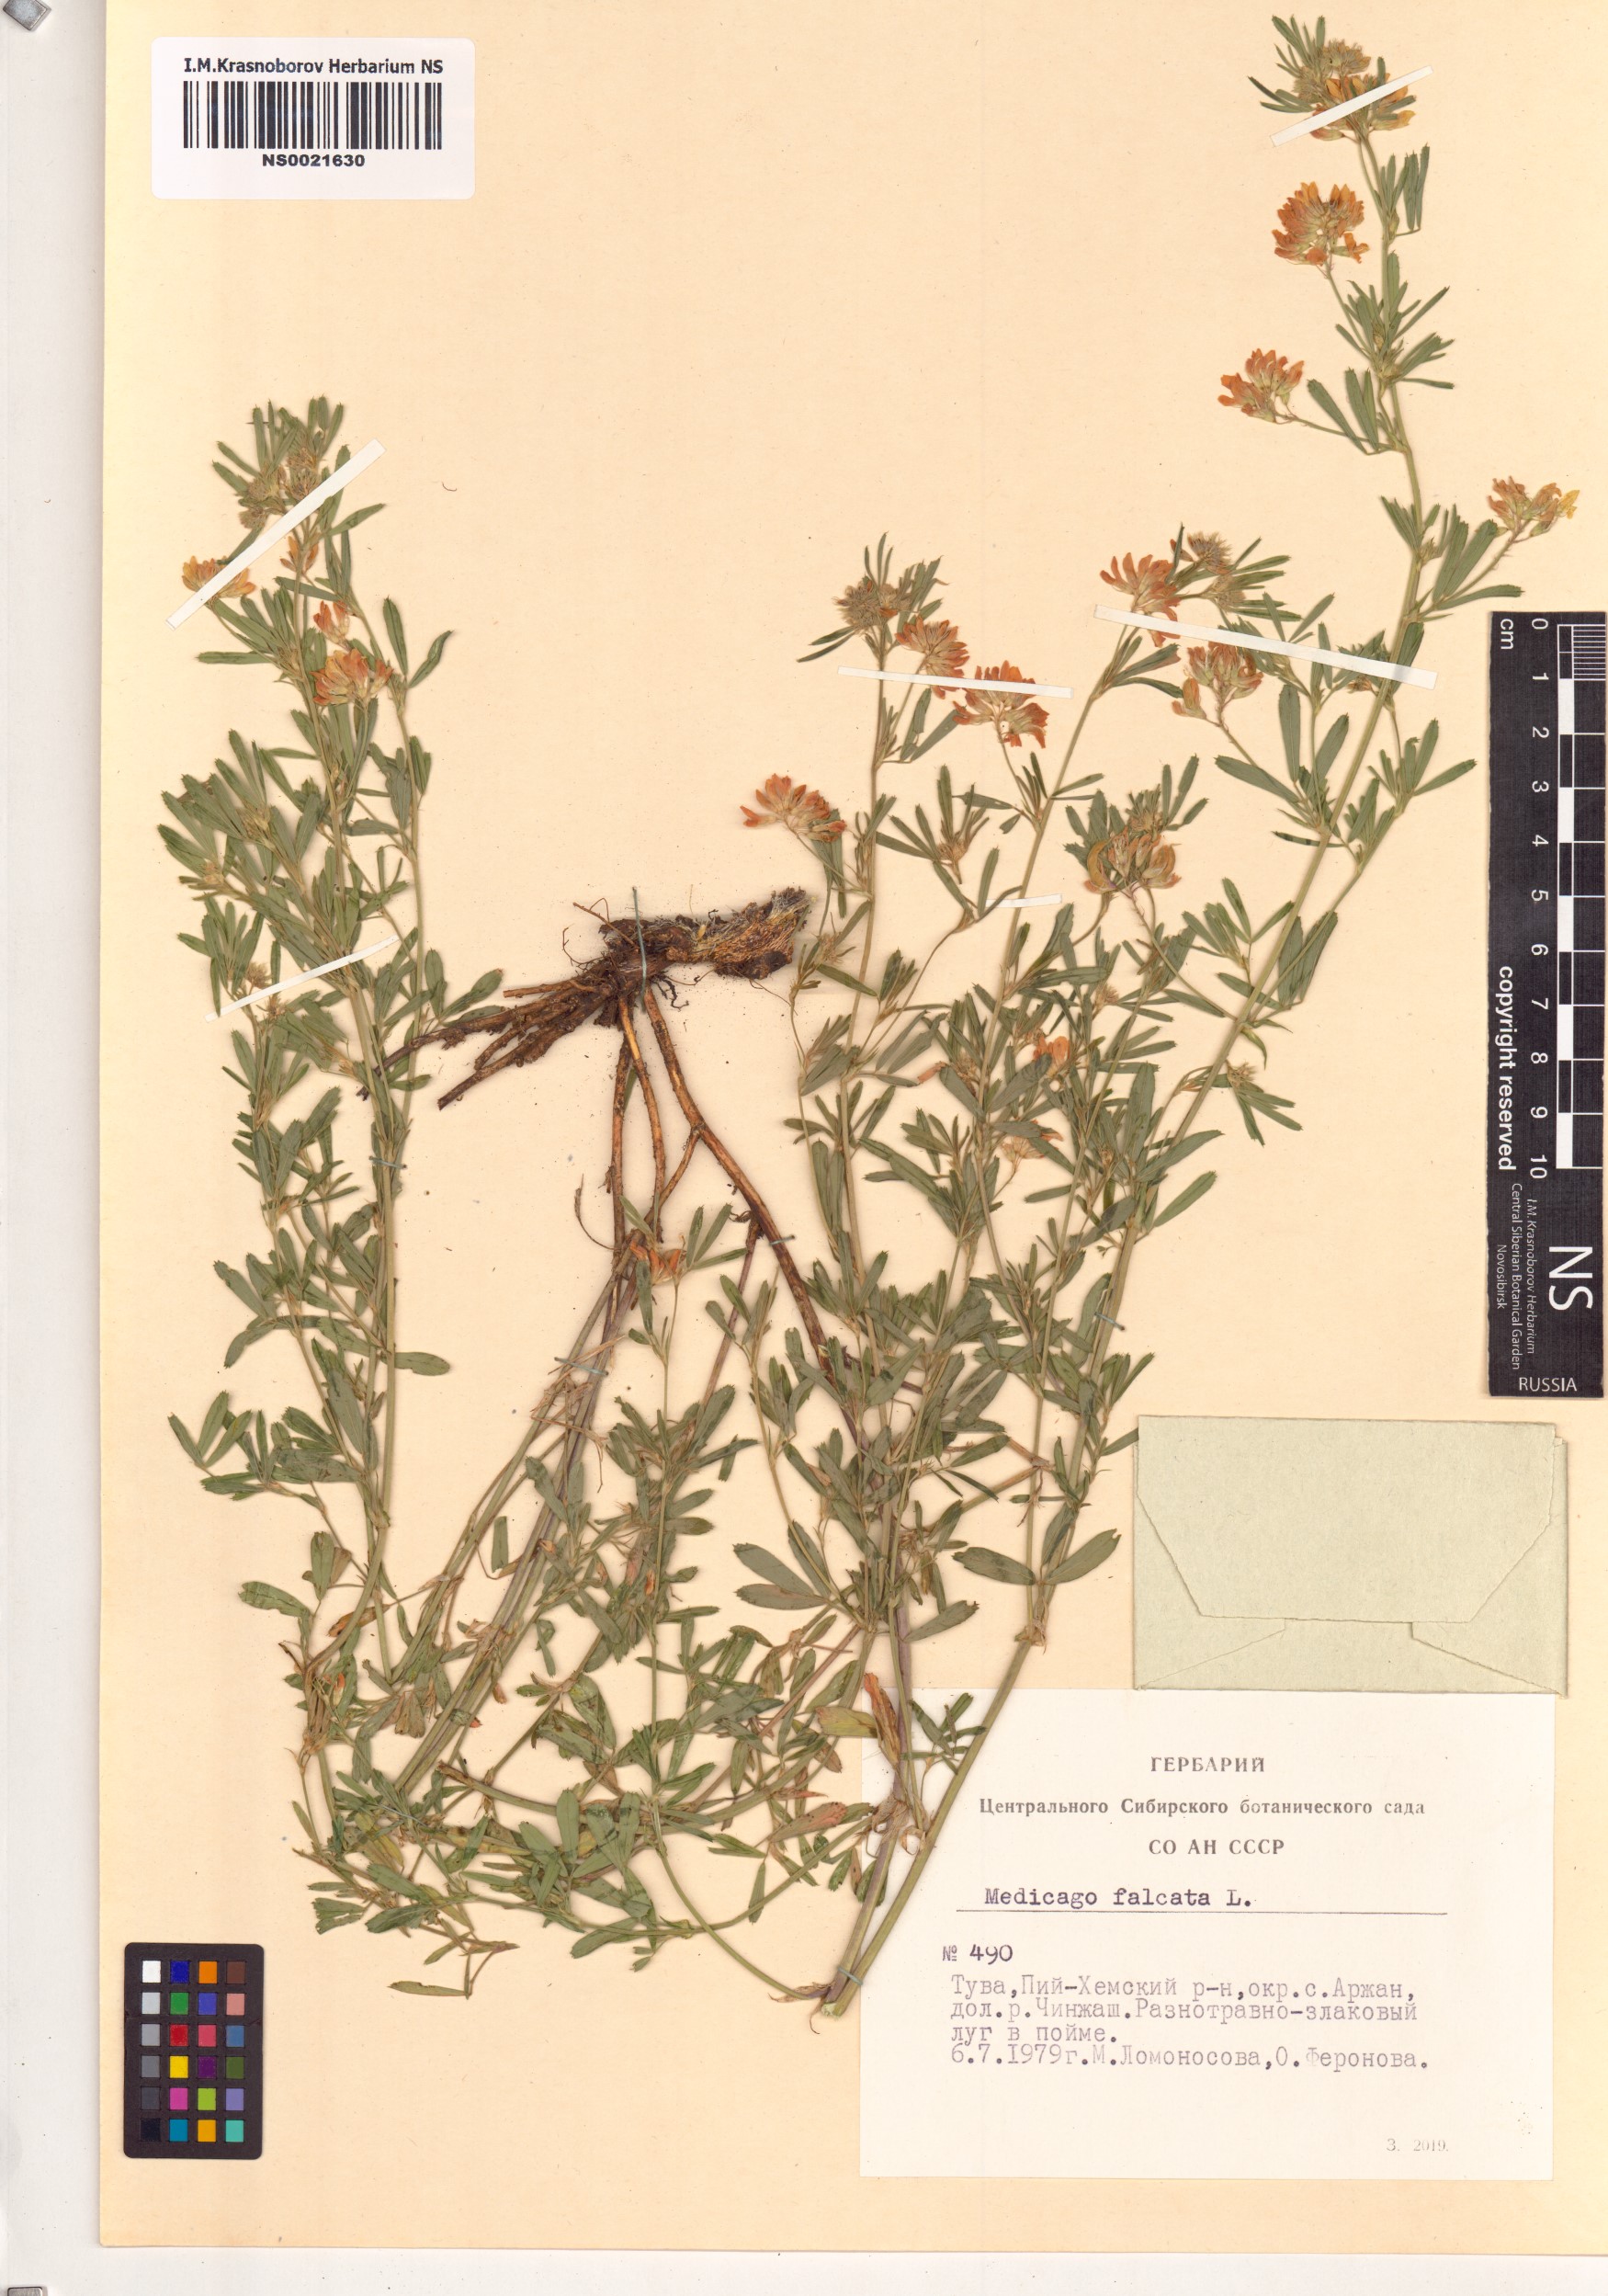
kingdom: Plantae
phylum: Tracheophyta
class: Magnoliopsida
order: Fabales
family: Fabaceae
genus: Medicago
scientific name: Medicago falcata
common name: Sickle medick
